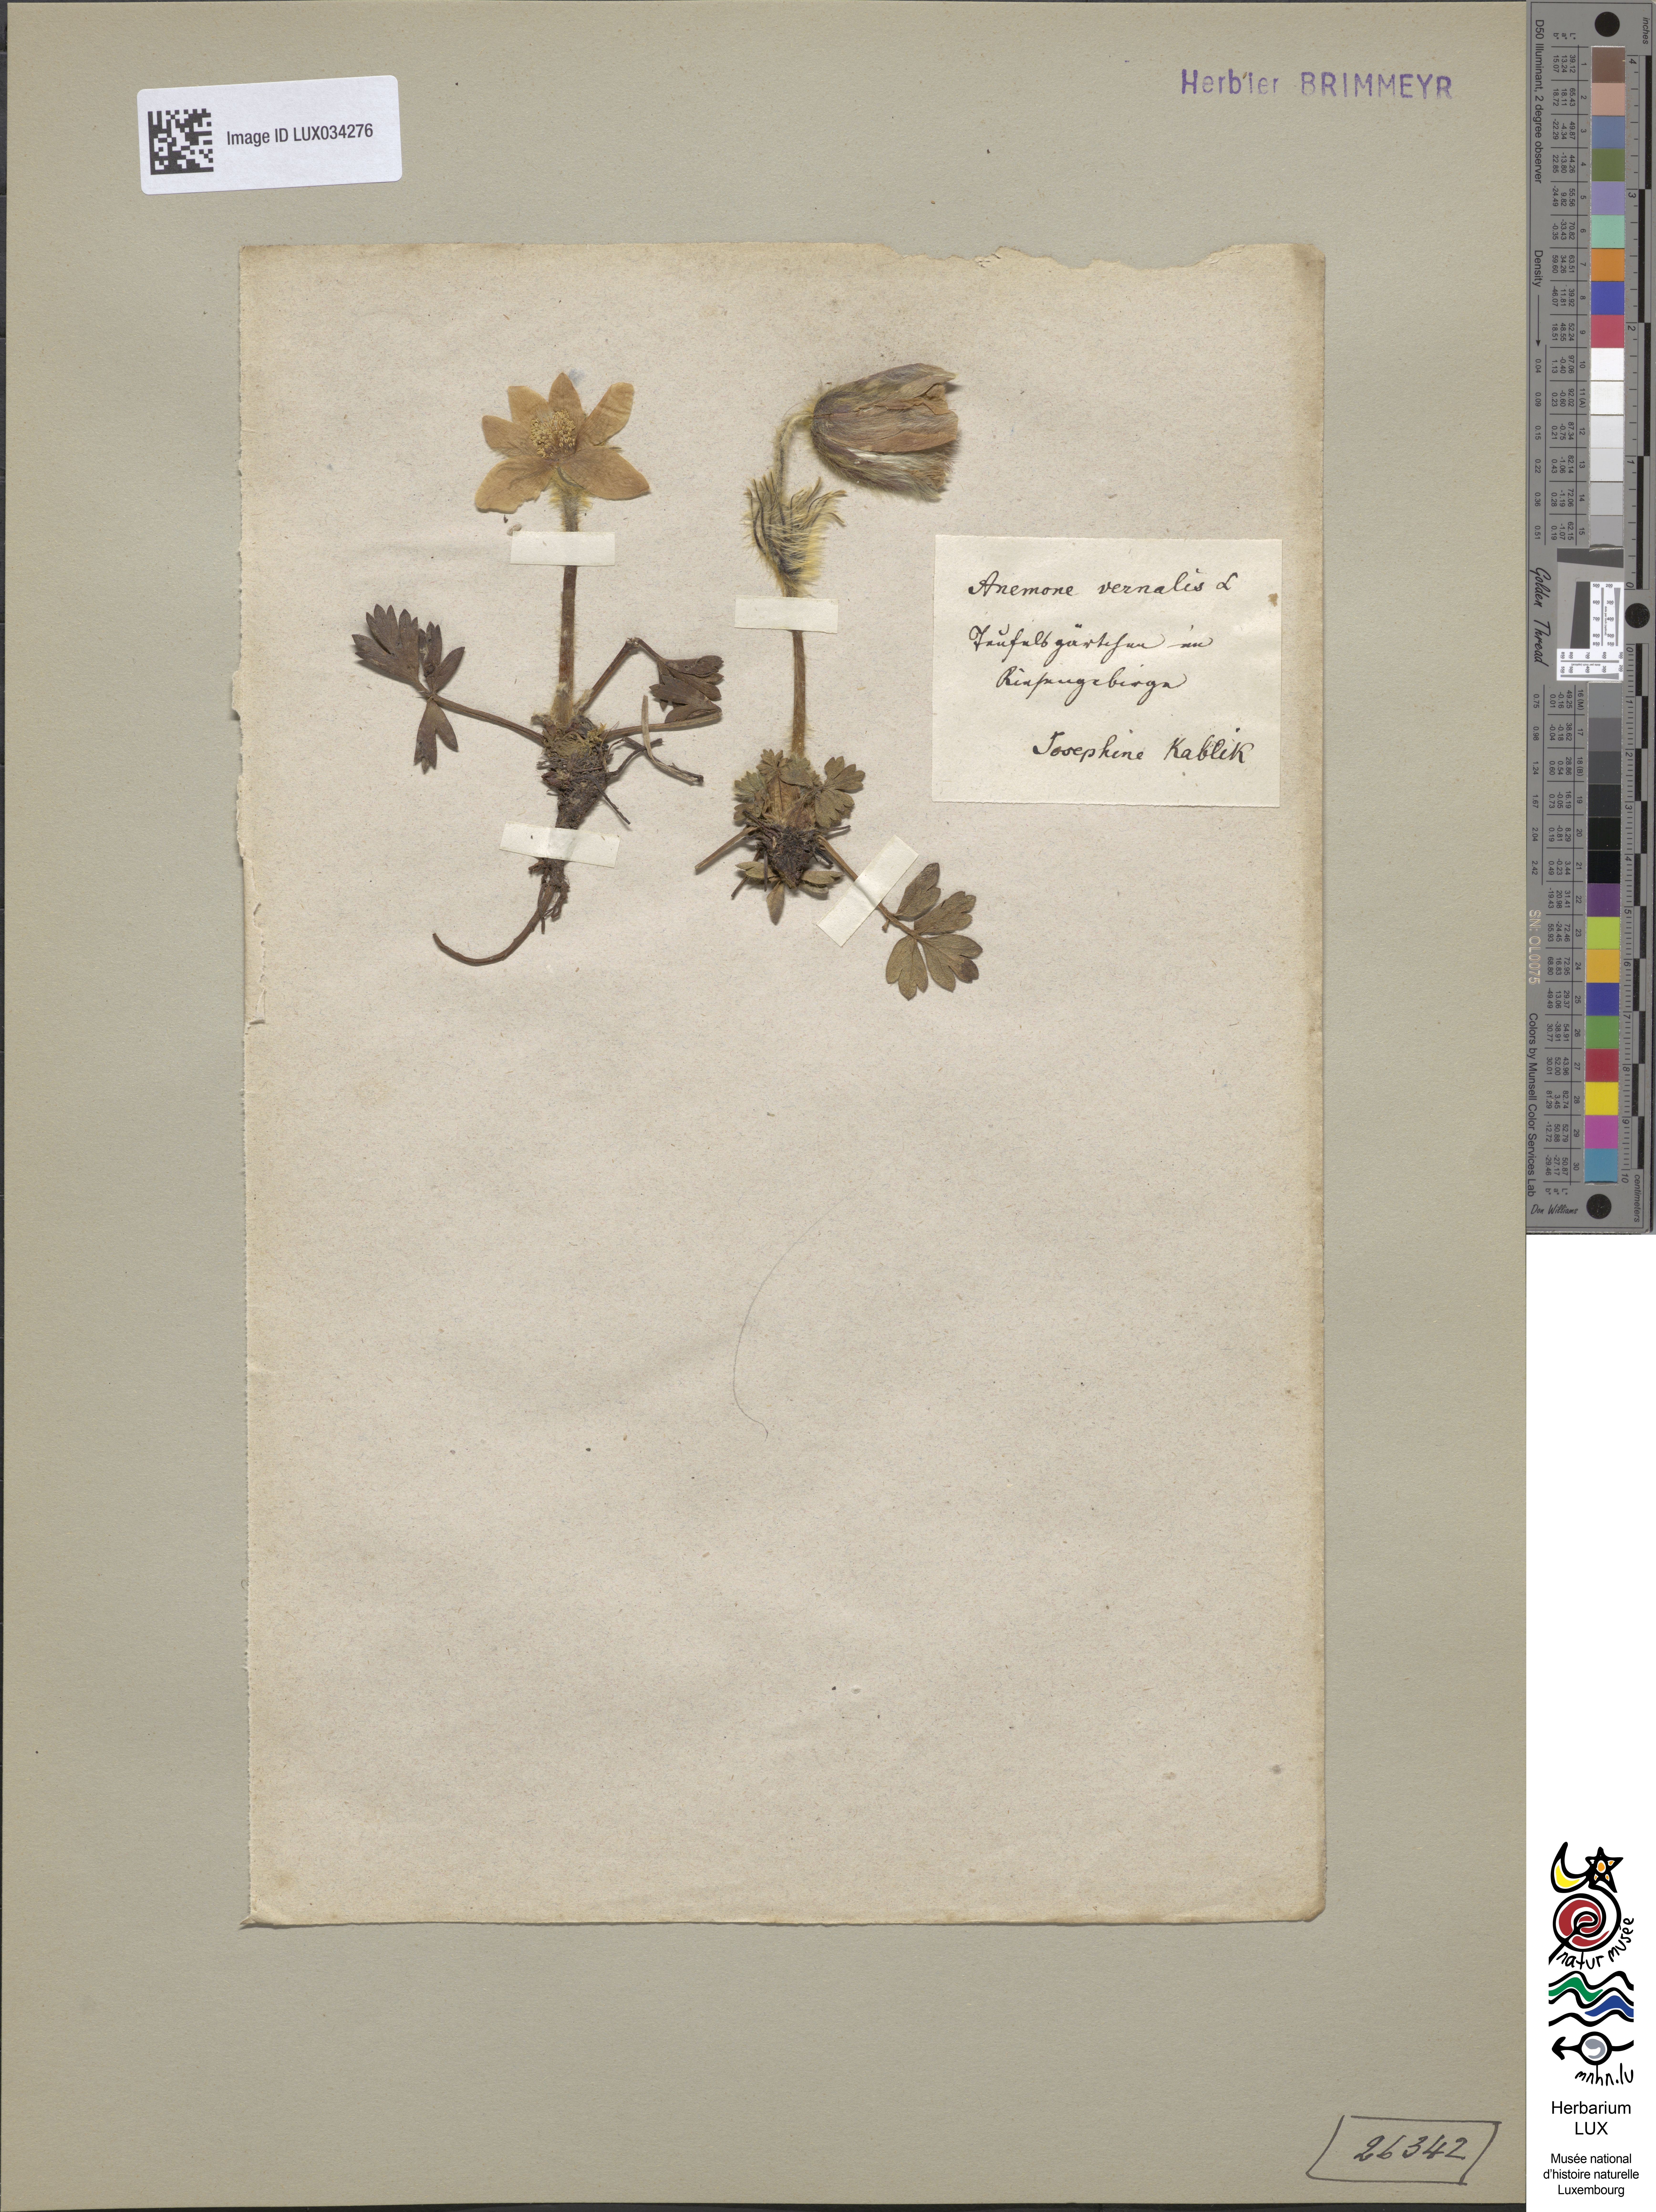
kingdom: Plantae
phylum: Tracheophyta
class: Magnoliopsida
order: Ranunculales
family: Ranunculaceae
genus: Pulsatilla
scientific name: Pulsatilla vernalis
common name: Spring pasque flower
